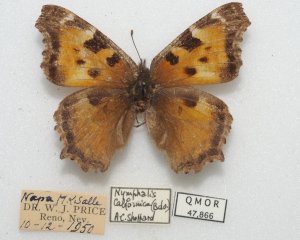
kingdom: Animalia
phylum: Arthropoda
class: Insecta
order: Lepidoptera
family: Nymphalidae
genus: Nymphalis
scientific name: Nymphalis californica
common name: California Tortoiseshell
